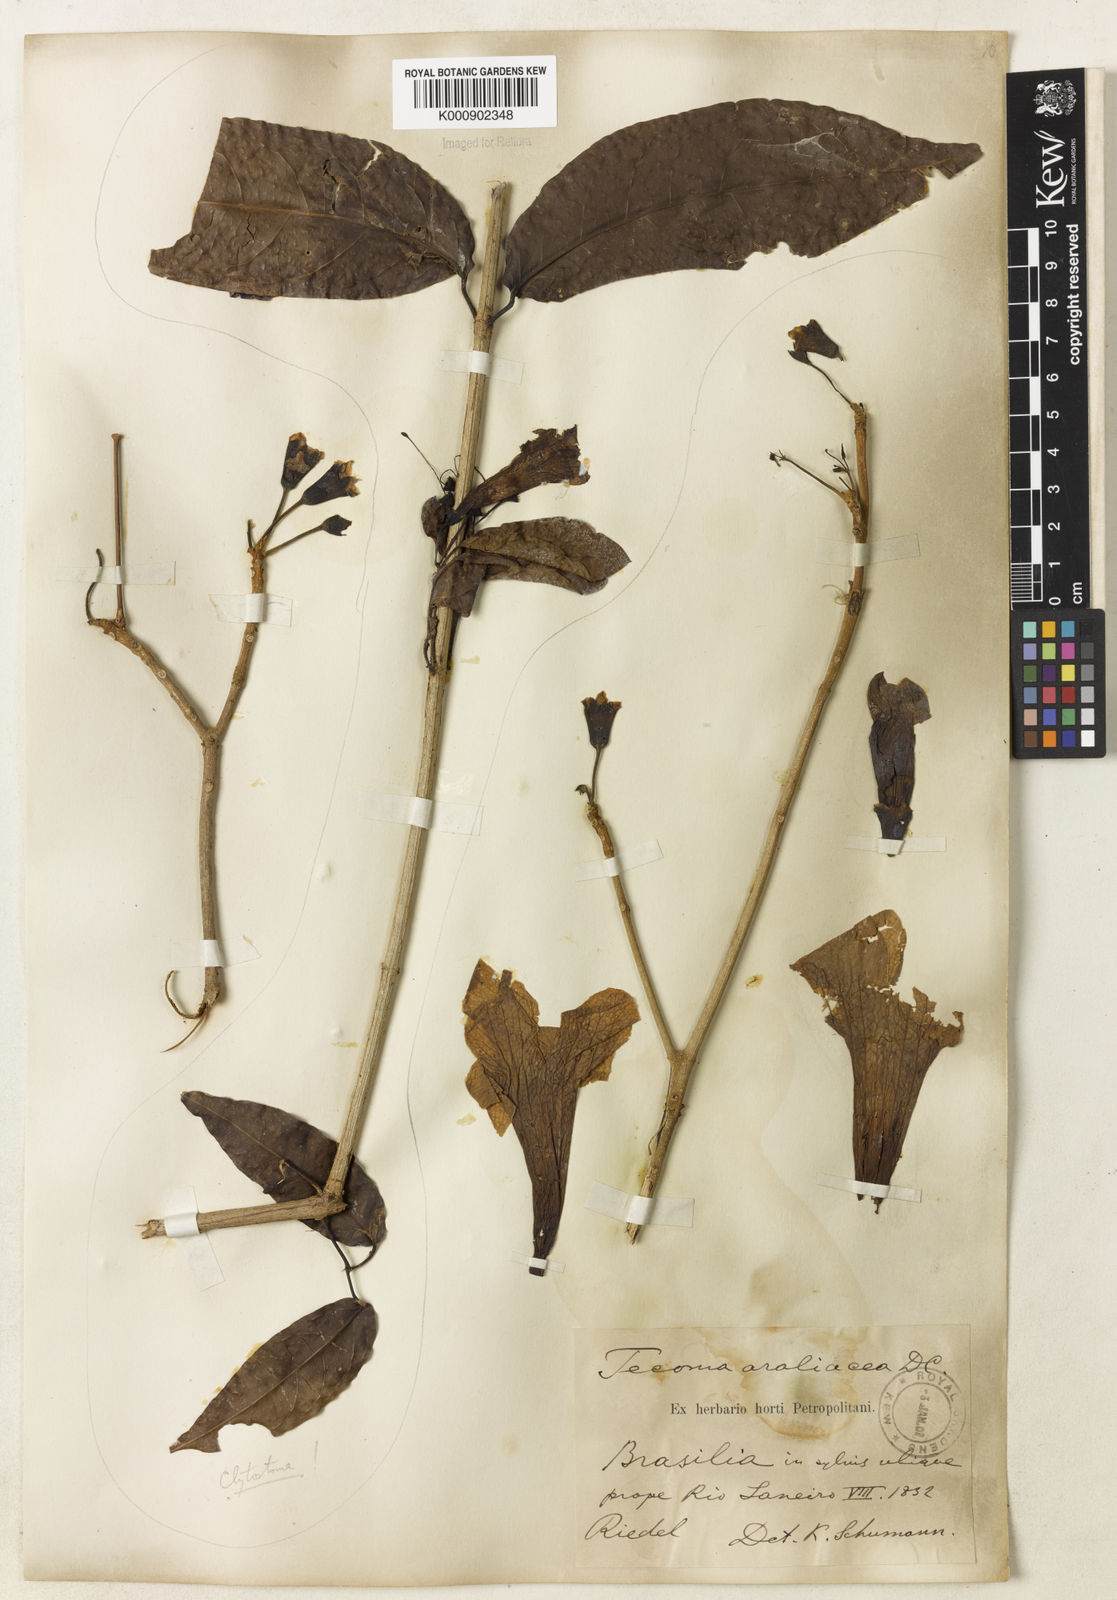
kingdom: Plantae
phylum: Tracheophyta
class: Magnoliopsida
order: Lamiales
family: Bignoniaceae
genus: Handroanthus
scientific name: Handroanthus serratifolius
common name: Yellow ipe
